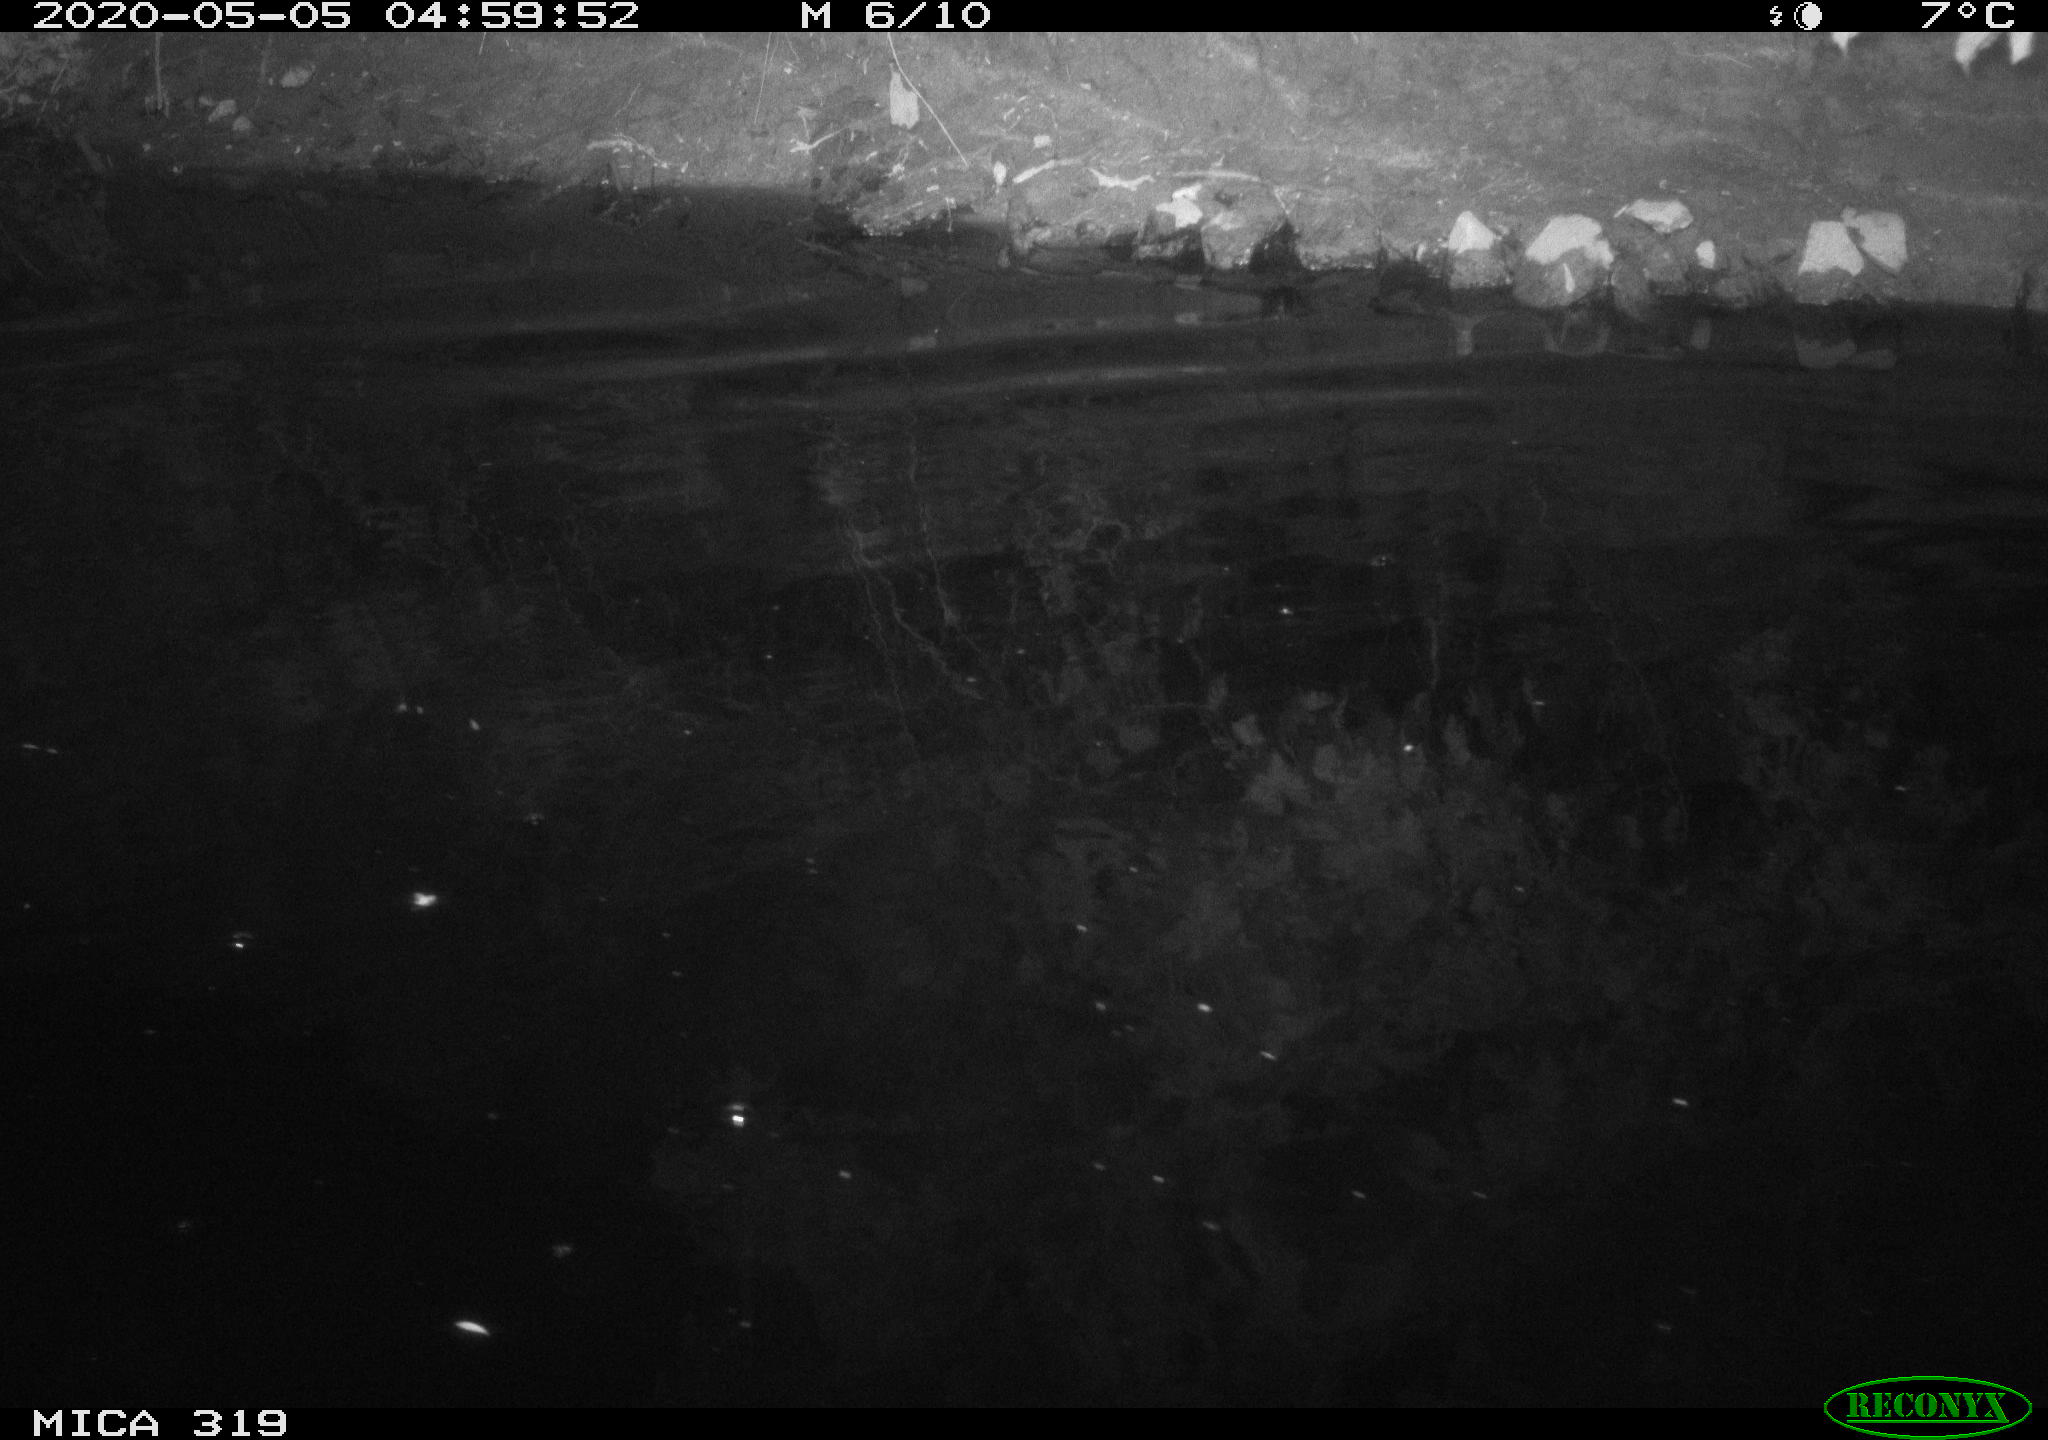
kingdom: Animalia
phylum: Chordata
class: Aves
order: Anseriformes
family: Anatidae
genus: Anas
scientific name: Anas platyrhynchos
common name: Mallard
